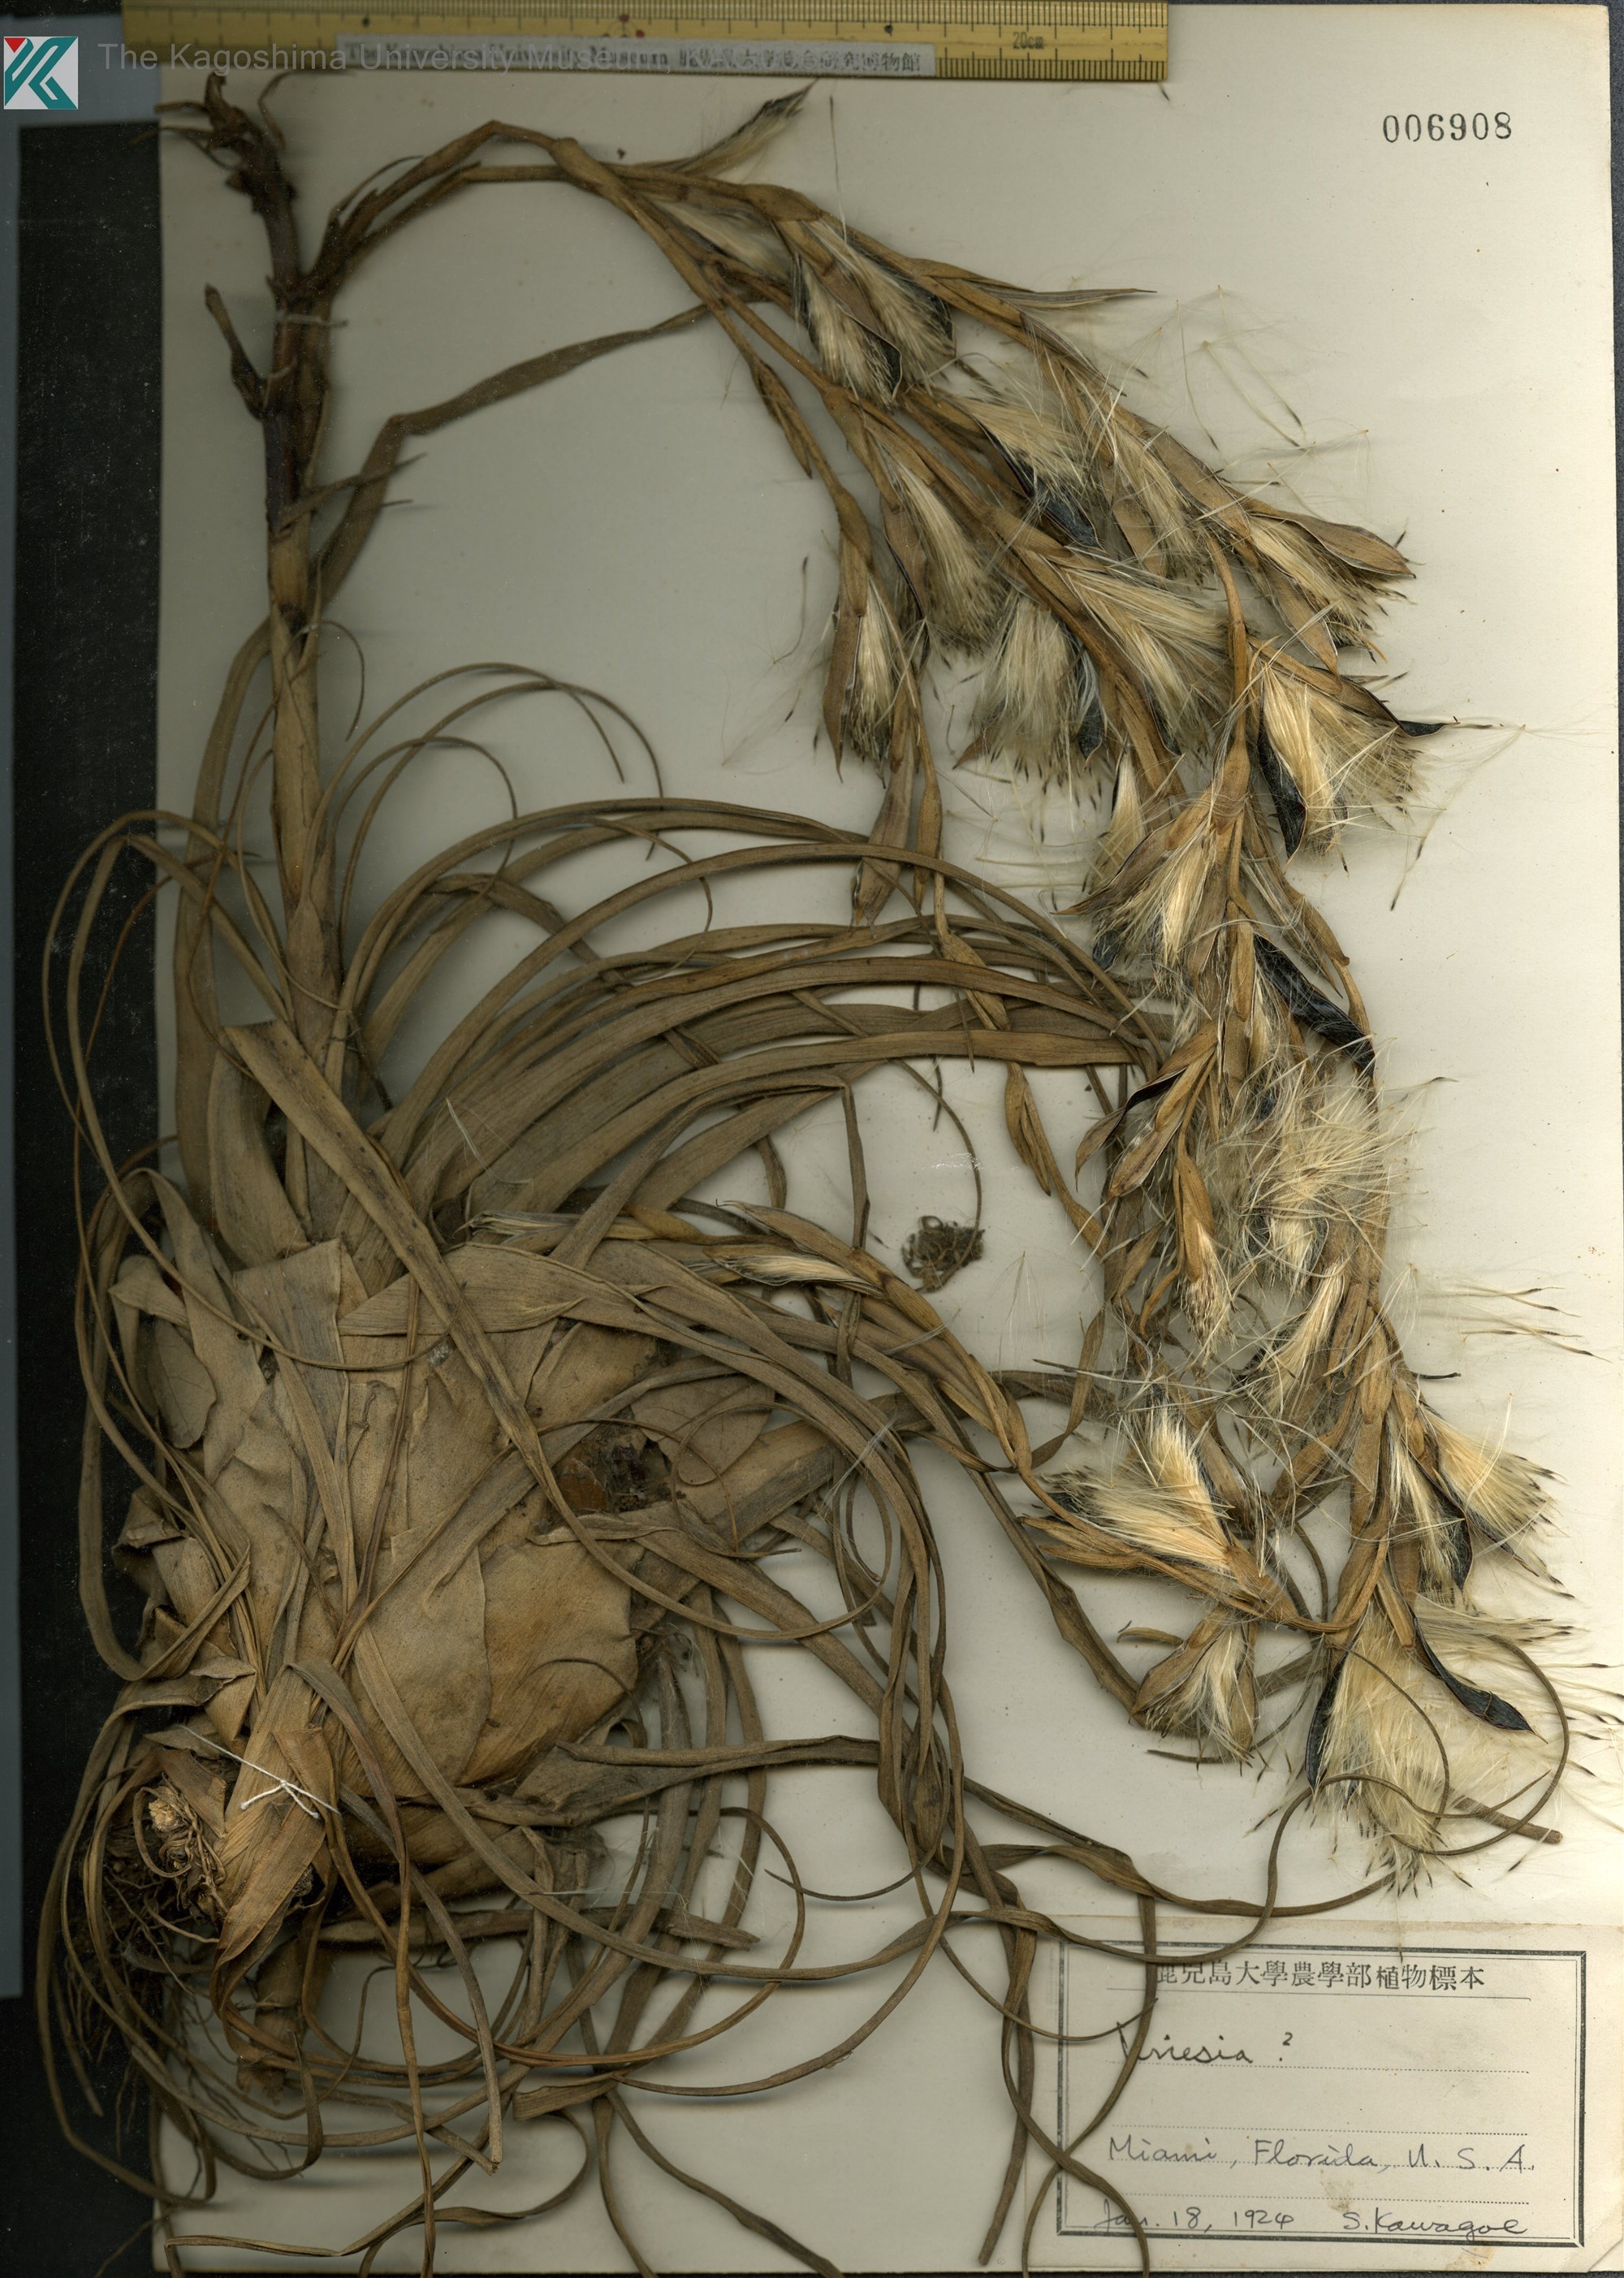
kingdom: Plantae
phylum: Tracheophyta
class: Liliopsida
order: Poales
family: Bromeliaceae
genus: Vriesia
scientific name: Vriesia
